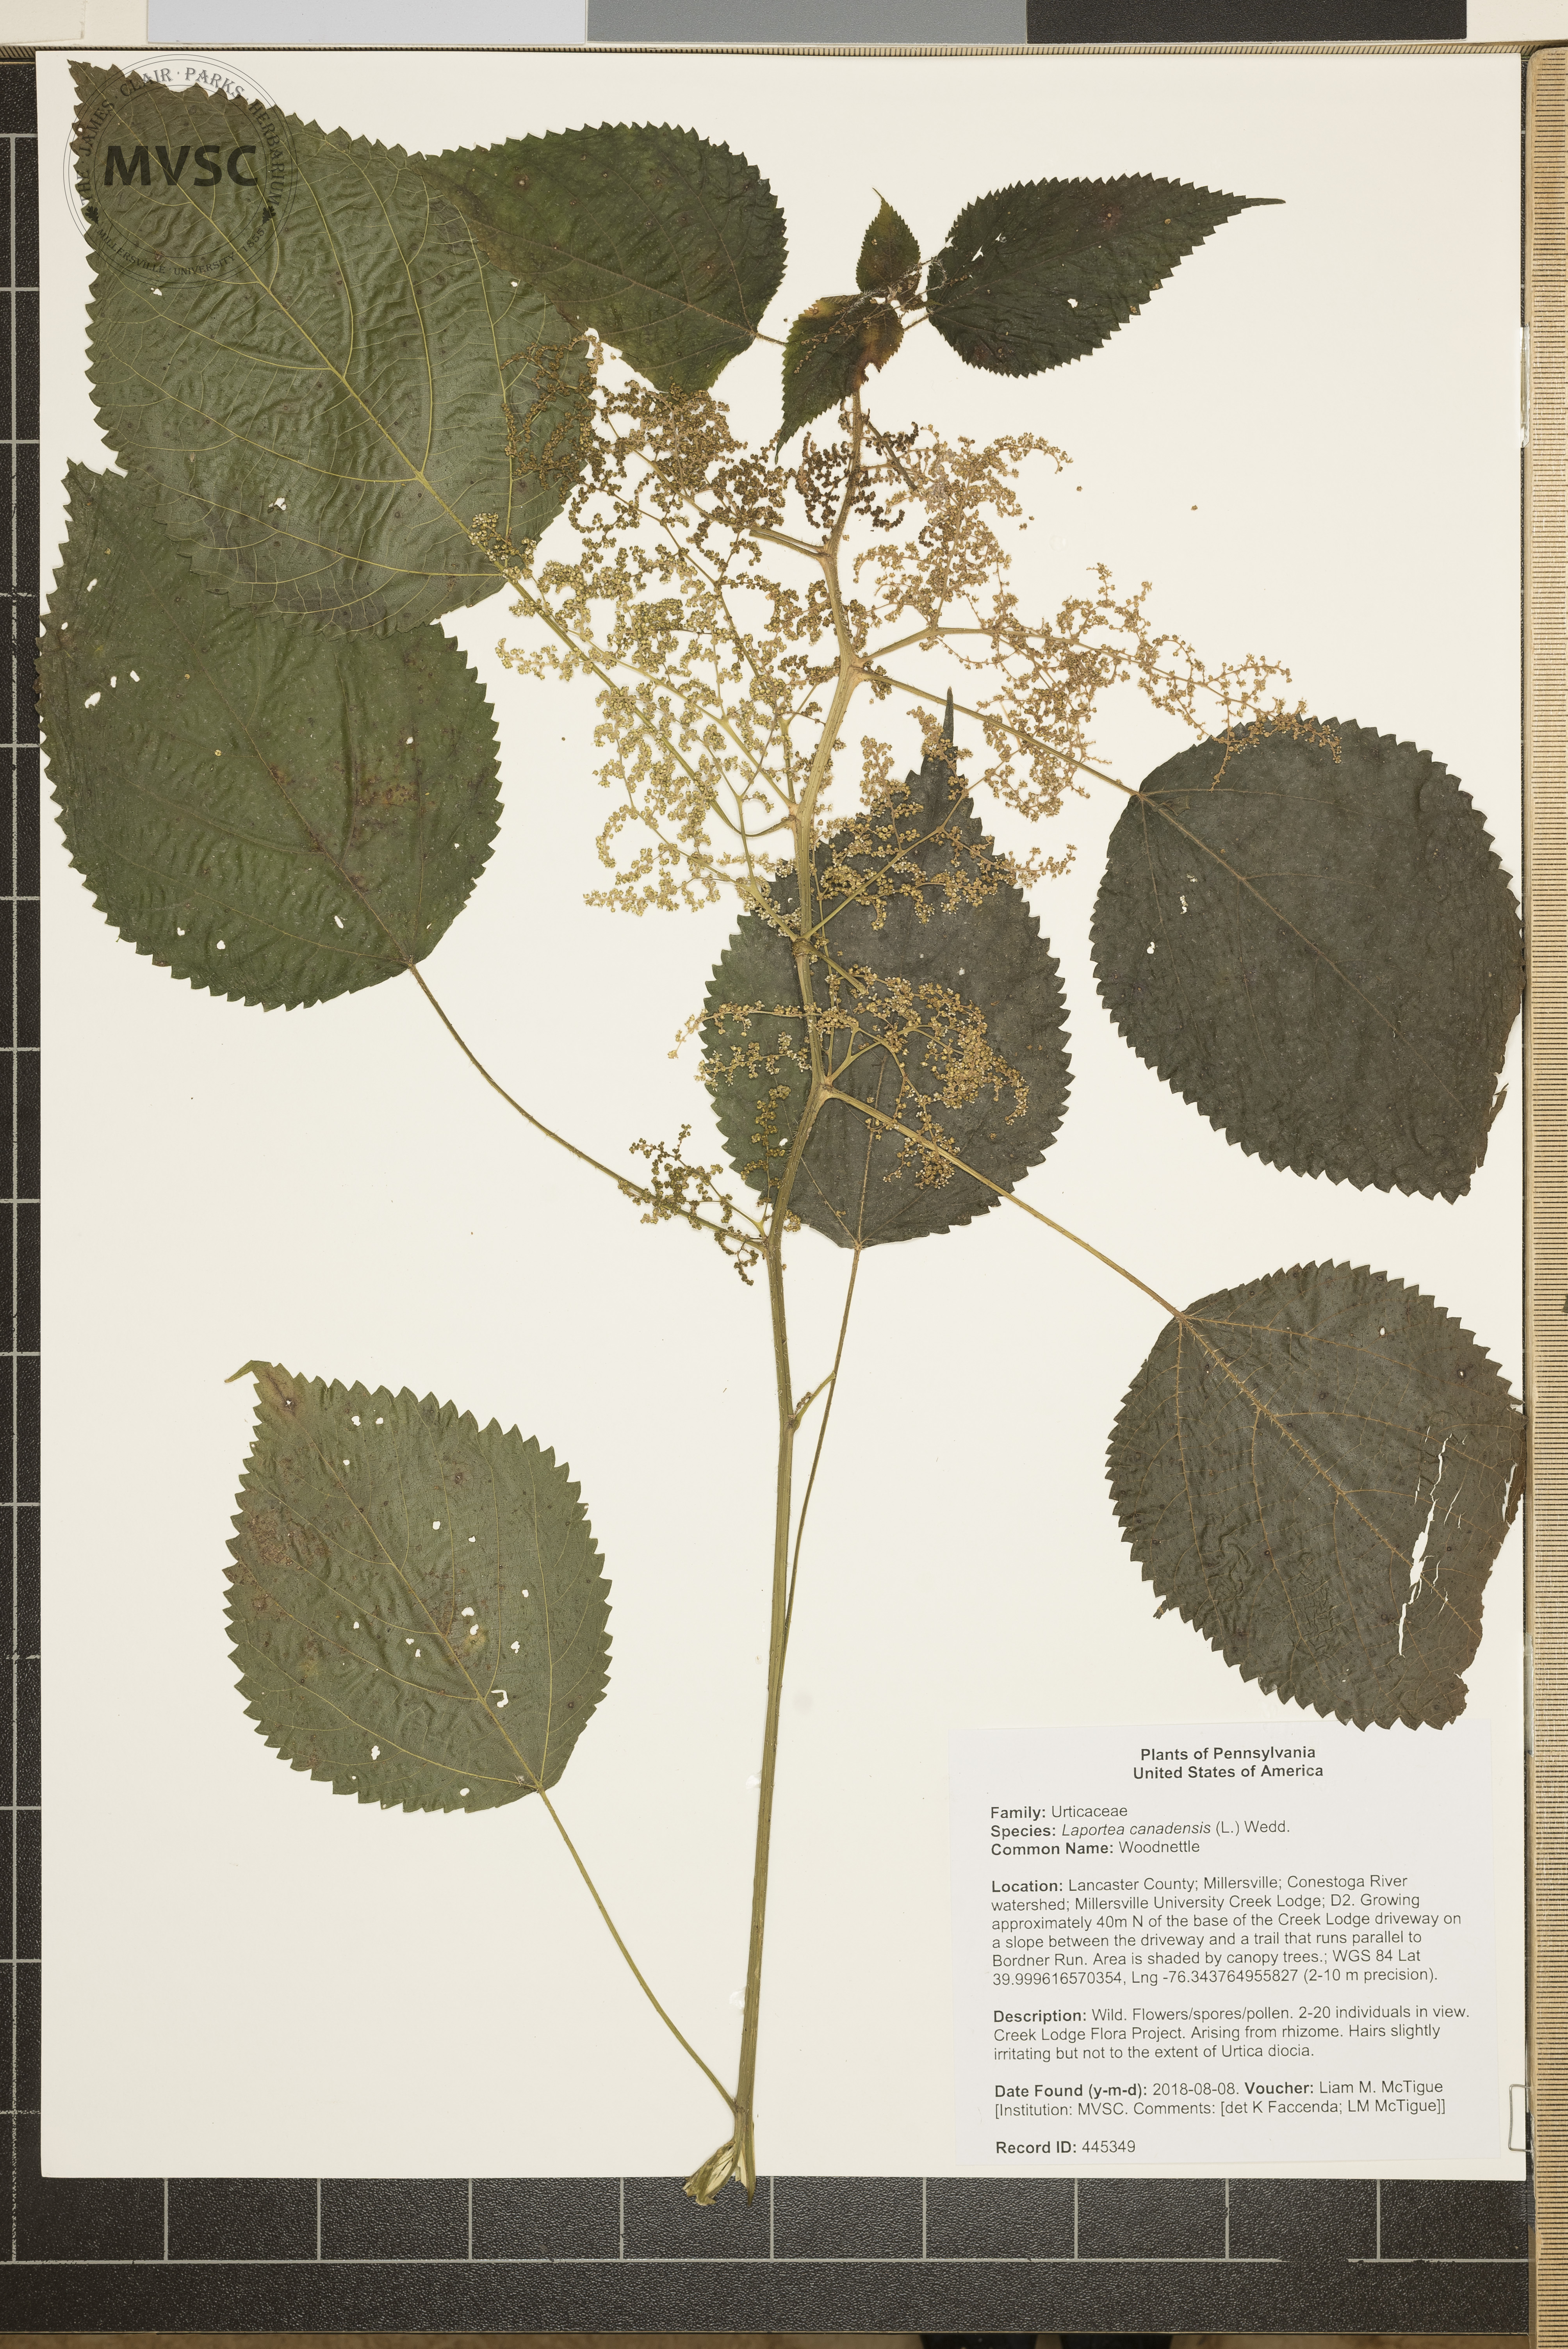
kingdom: Plantae
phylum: Tracheophyta
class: Magnoliopsida
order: Rosales
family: Urticaceae
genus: Laportea
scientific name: Laportea canadensis
